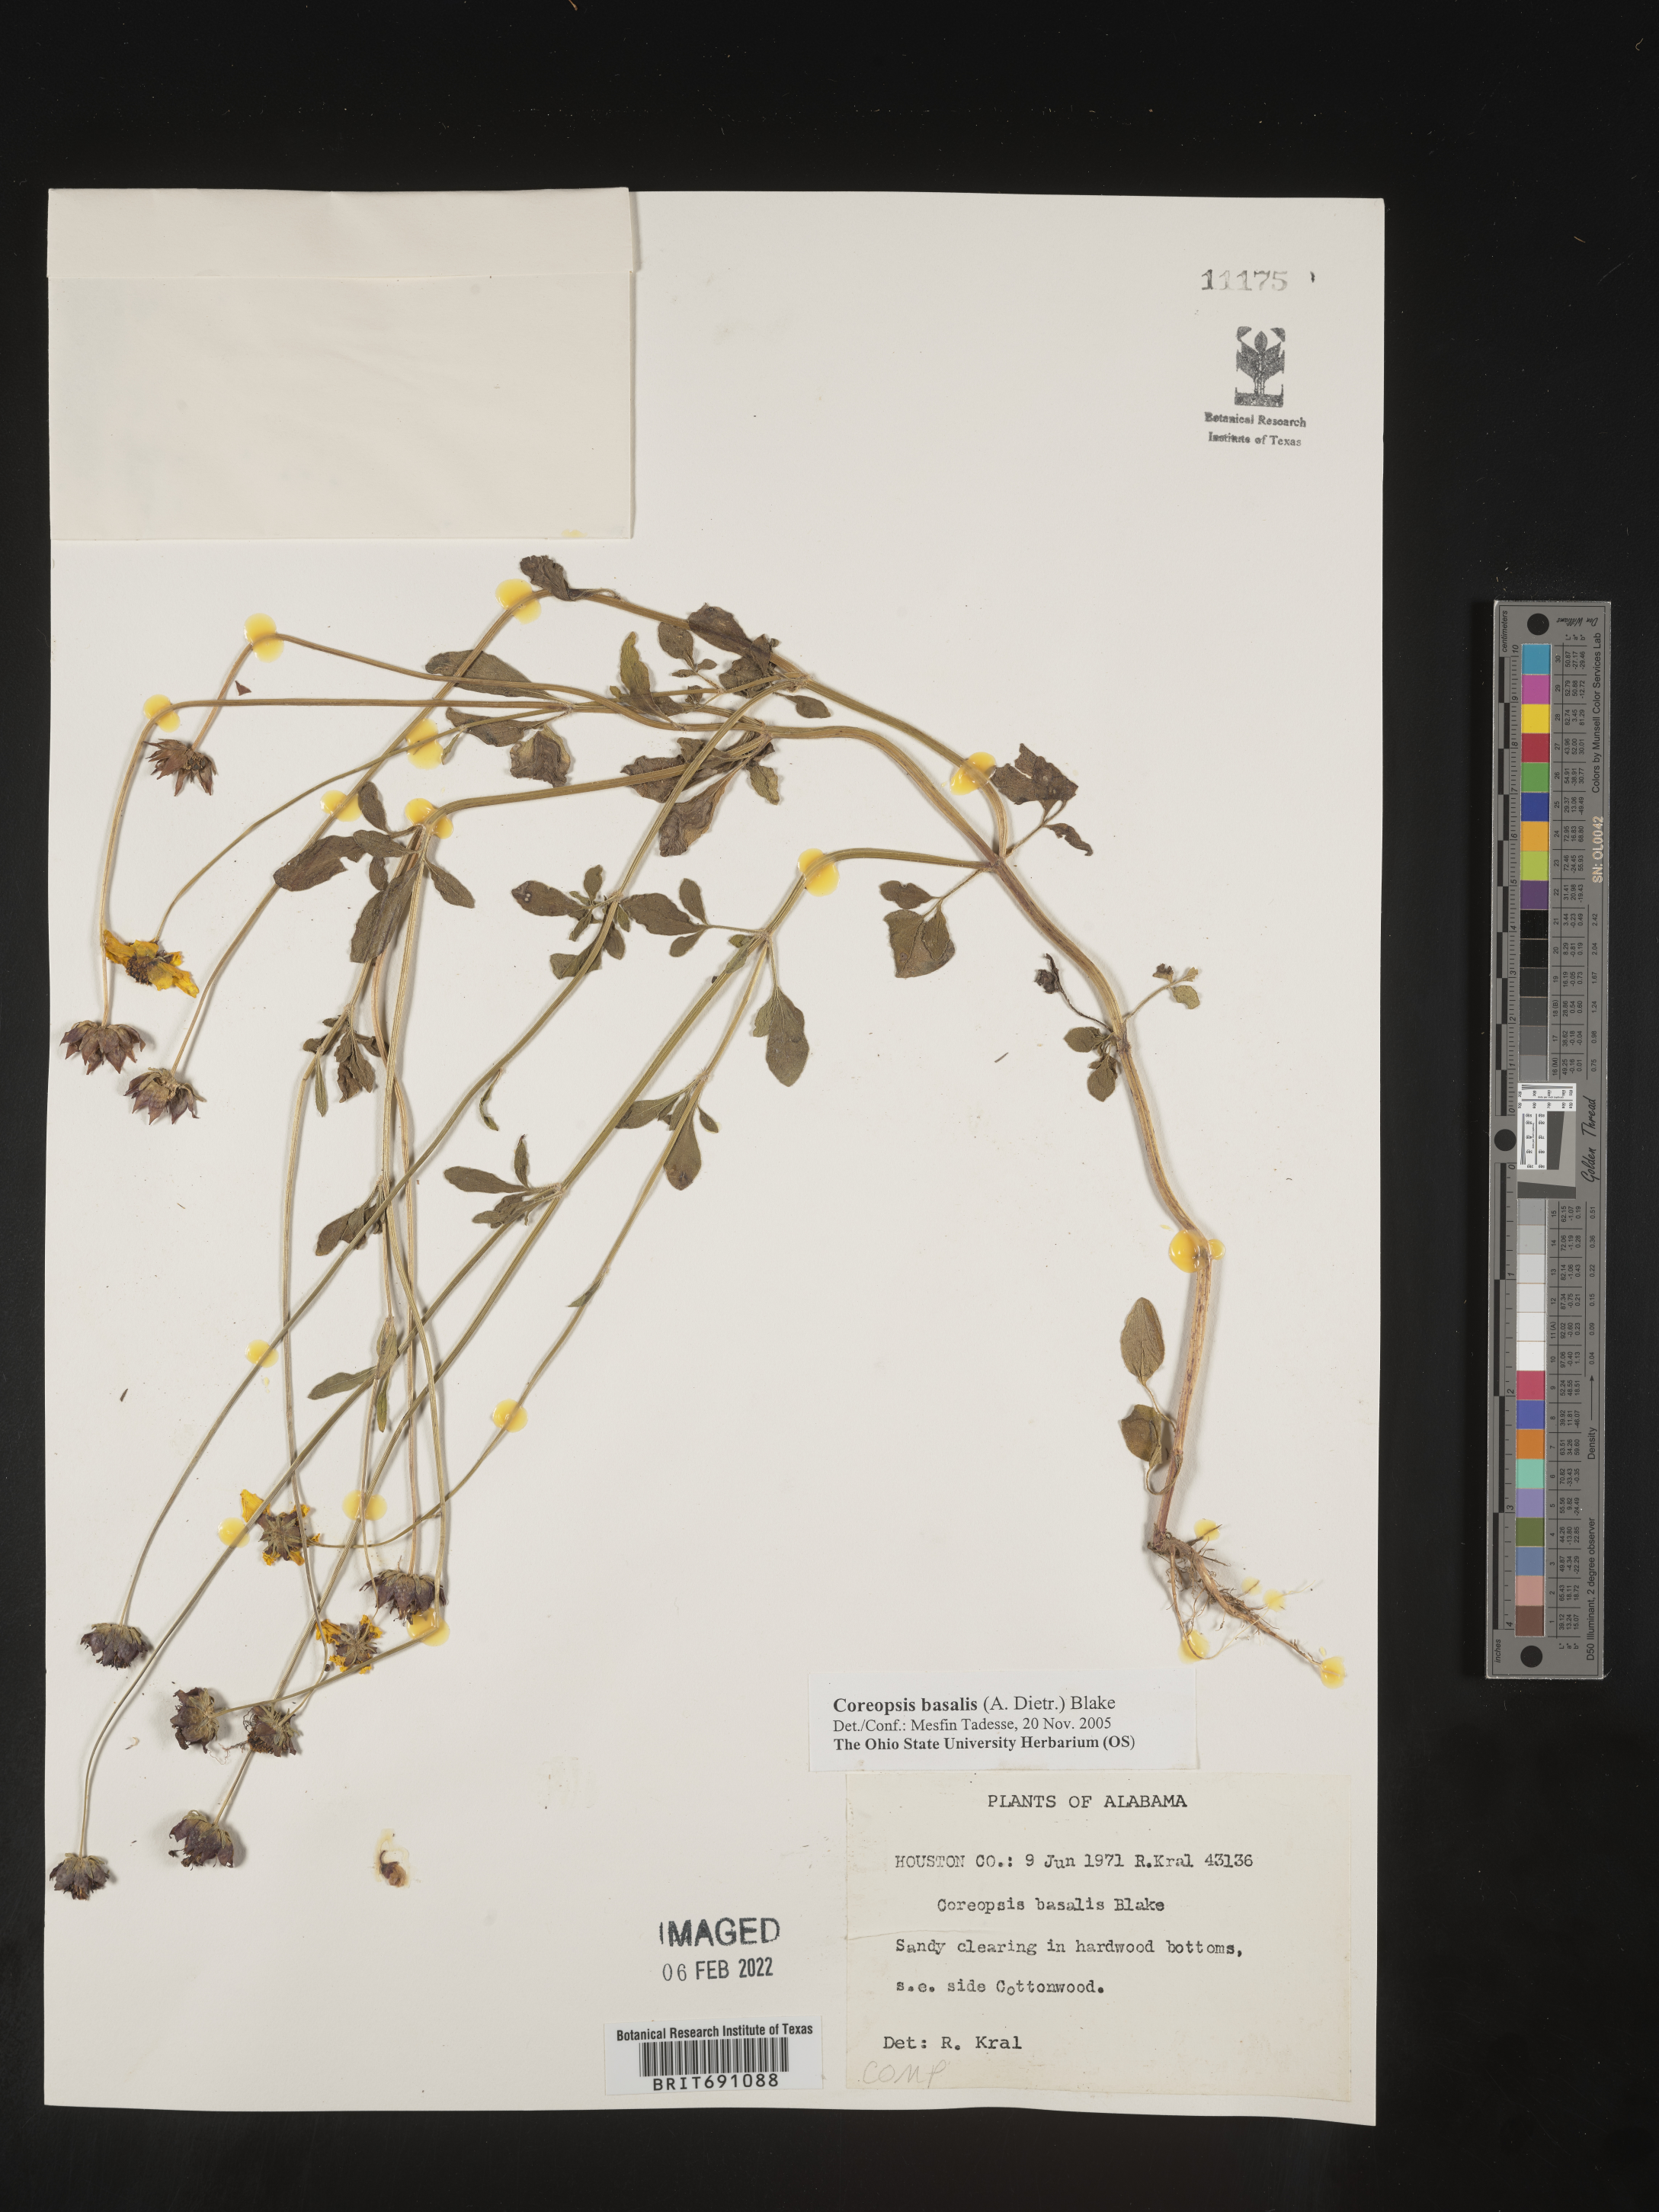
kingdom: Plantae
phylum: Tracheophyta
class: Magnoliopsida
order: Asterales
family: Asteraceae
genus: Coreopsis
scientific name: Coreopsis
